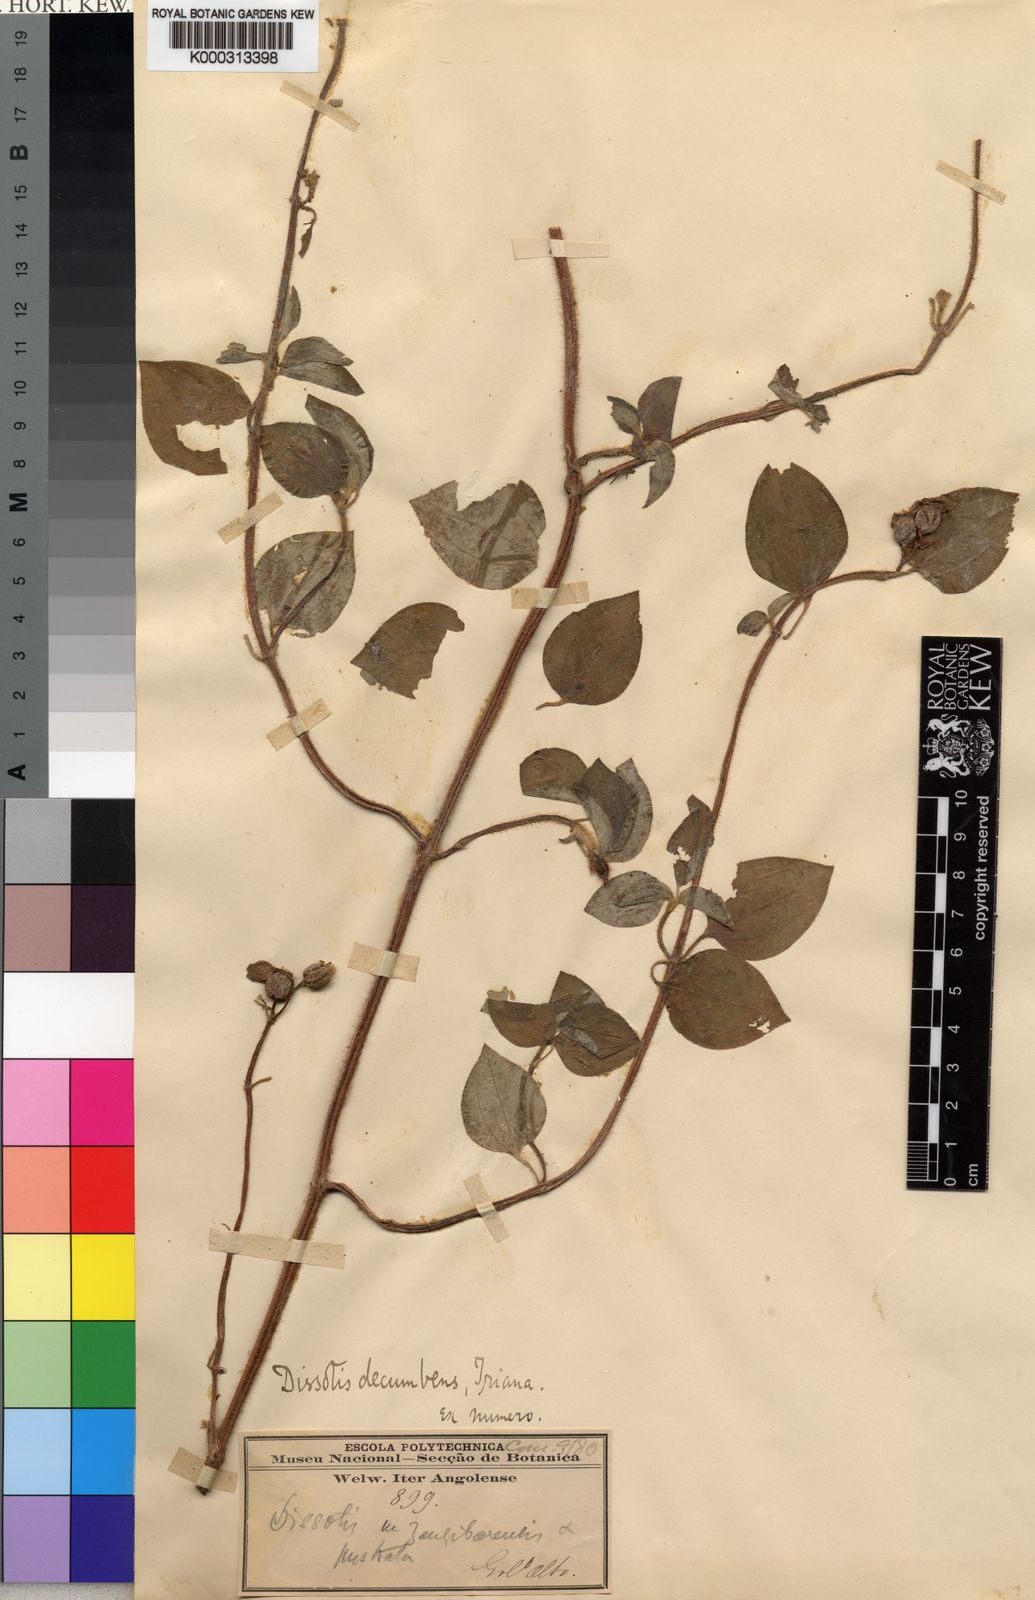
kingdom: Plantae
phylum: Tracheophyta
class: Magnoliopsida
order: Myrtales
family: Melastomataceae
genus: Heterotis
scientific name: Heterotis
